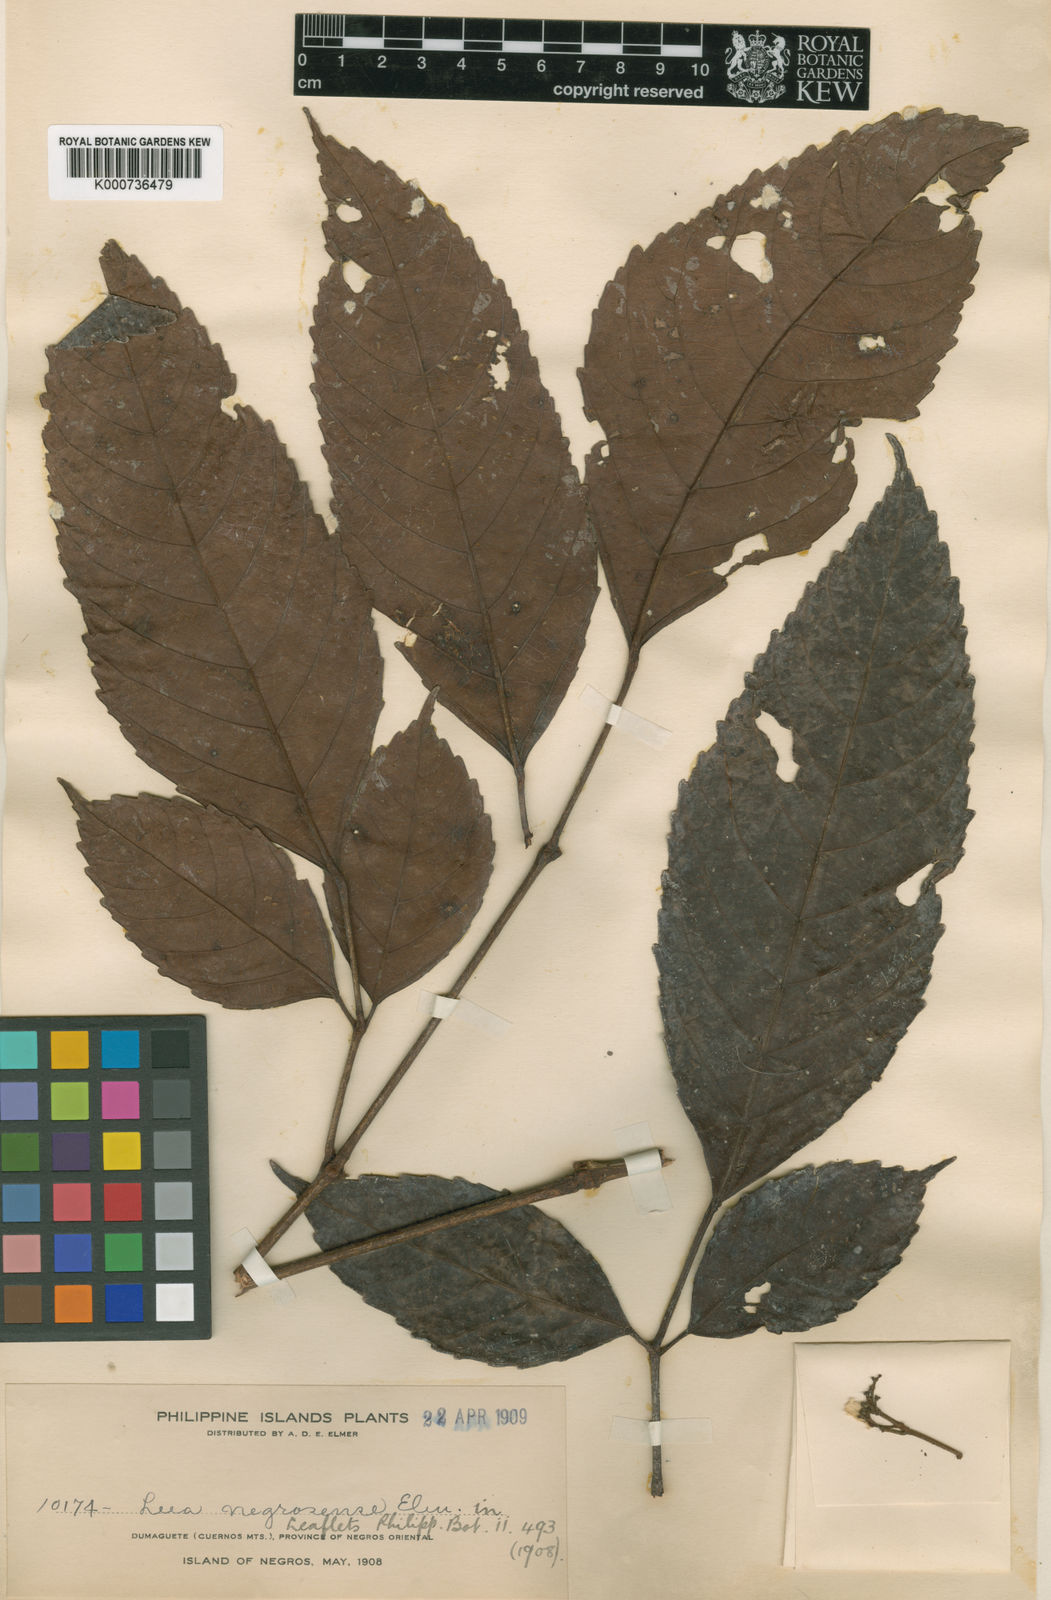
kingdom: Plantae
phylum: Tracheophyta
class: Magnoliopsida
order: Vitales
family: Vitaceae
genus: Leea
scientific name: Leea guineensis
